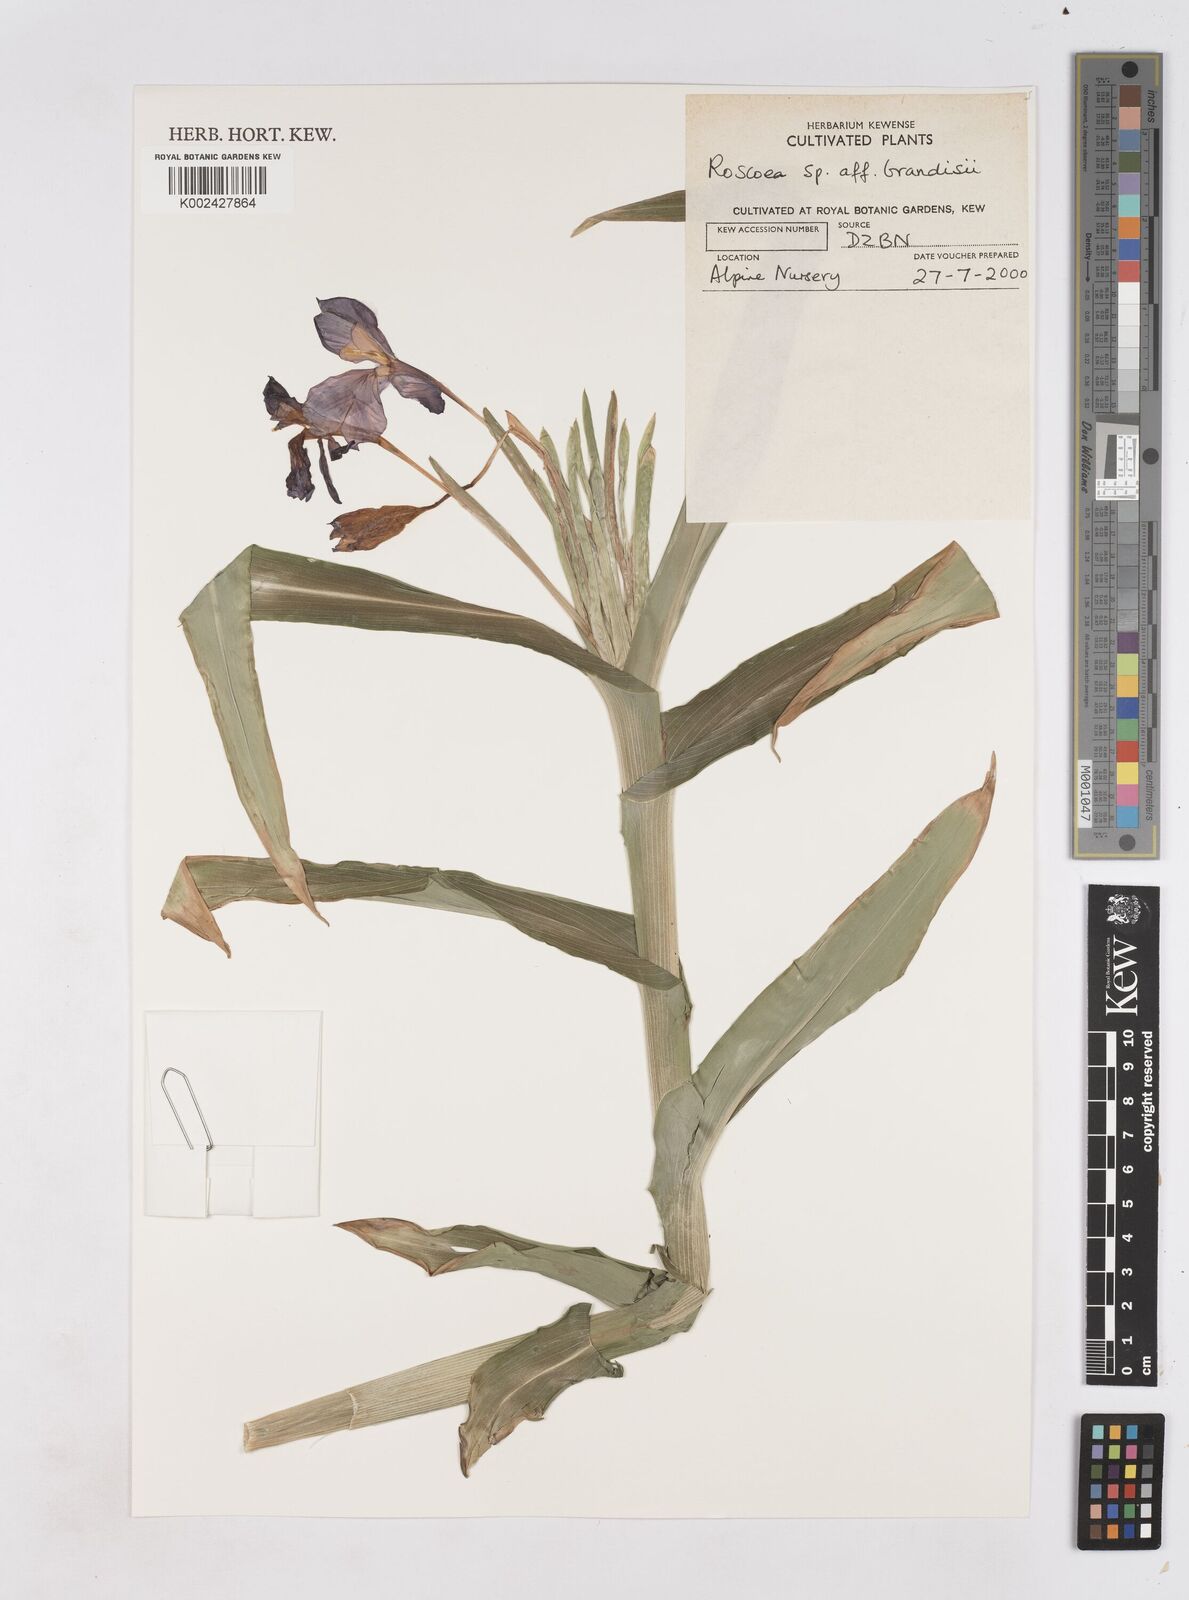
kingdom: Plantae
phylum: Tracheophyta
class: Liliopsida
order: Zingiberales
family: Zingiberaceae
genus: Roscoea
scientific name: Roscoea tumjensis
